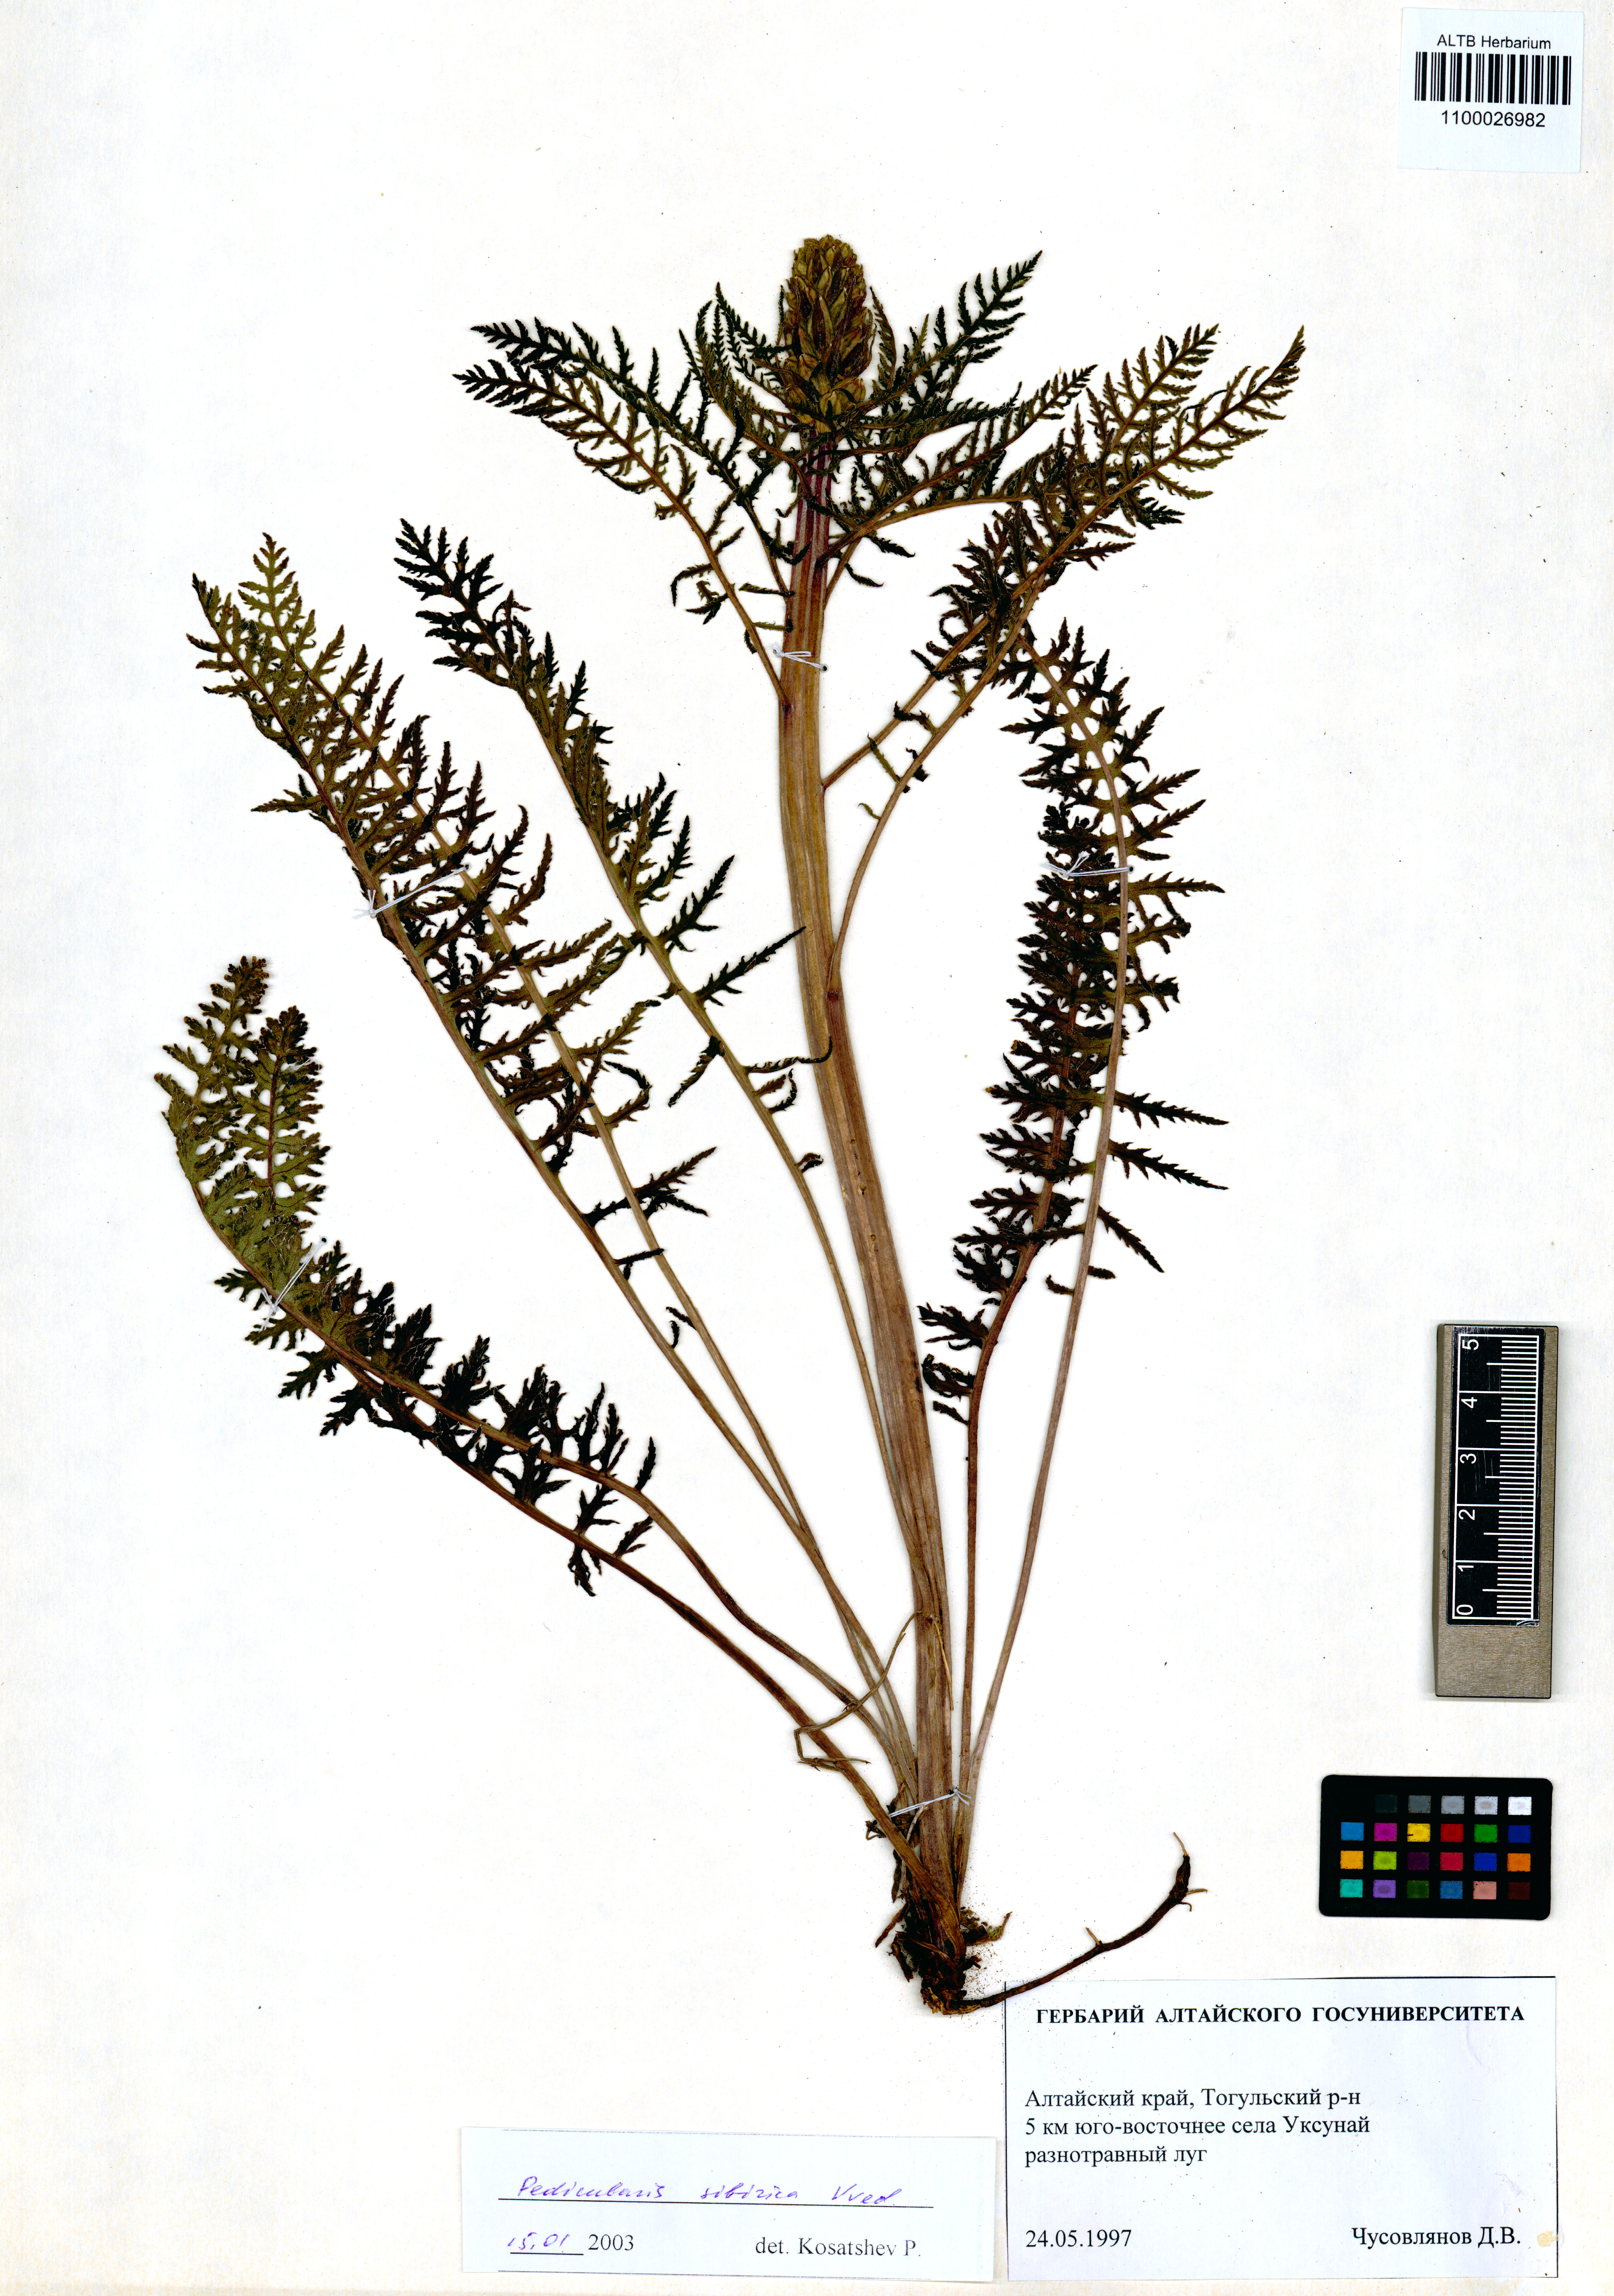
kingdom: Plantae
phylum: Tracheophyta
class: Magnoliopsida
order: Lamiales
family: Orobanchaceae
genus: Pedicularis
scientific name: Pedicularis sibirica
